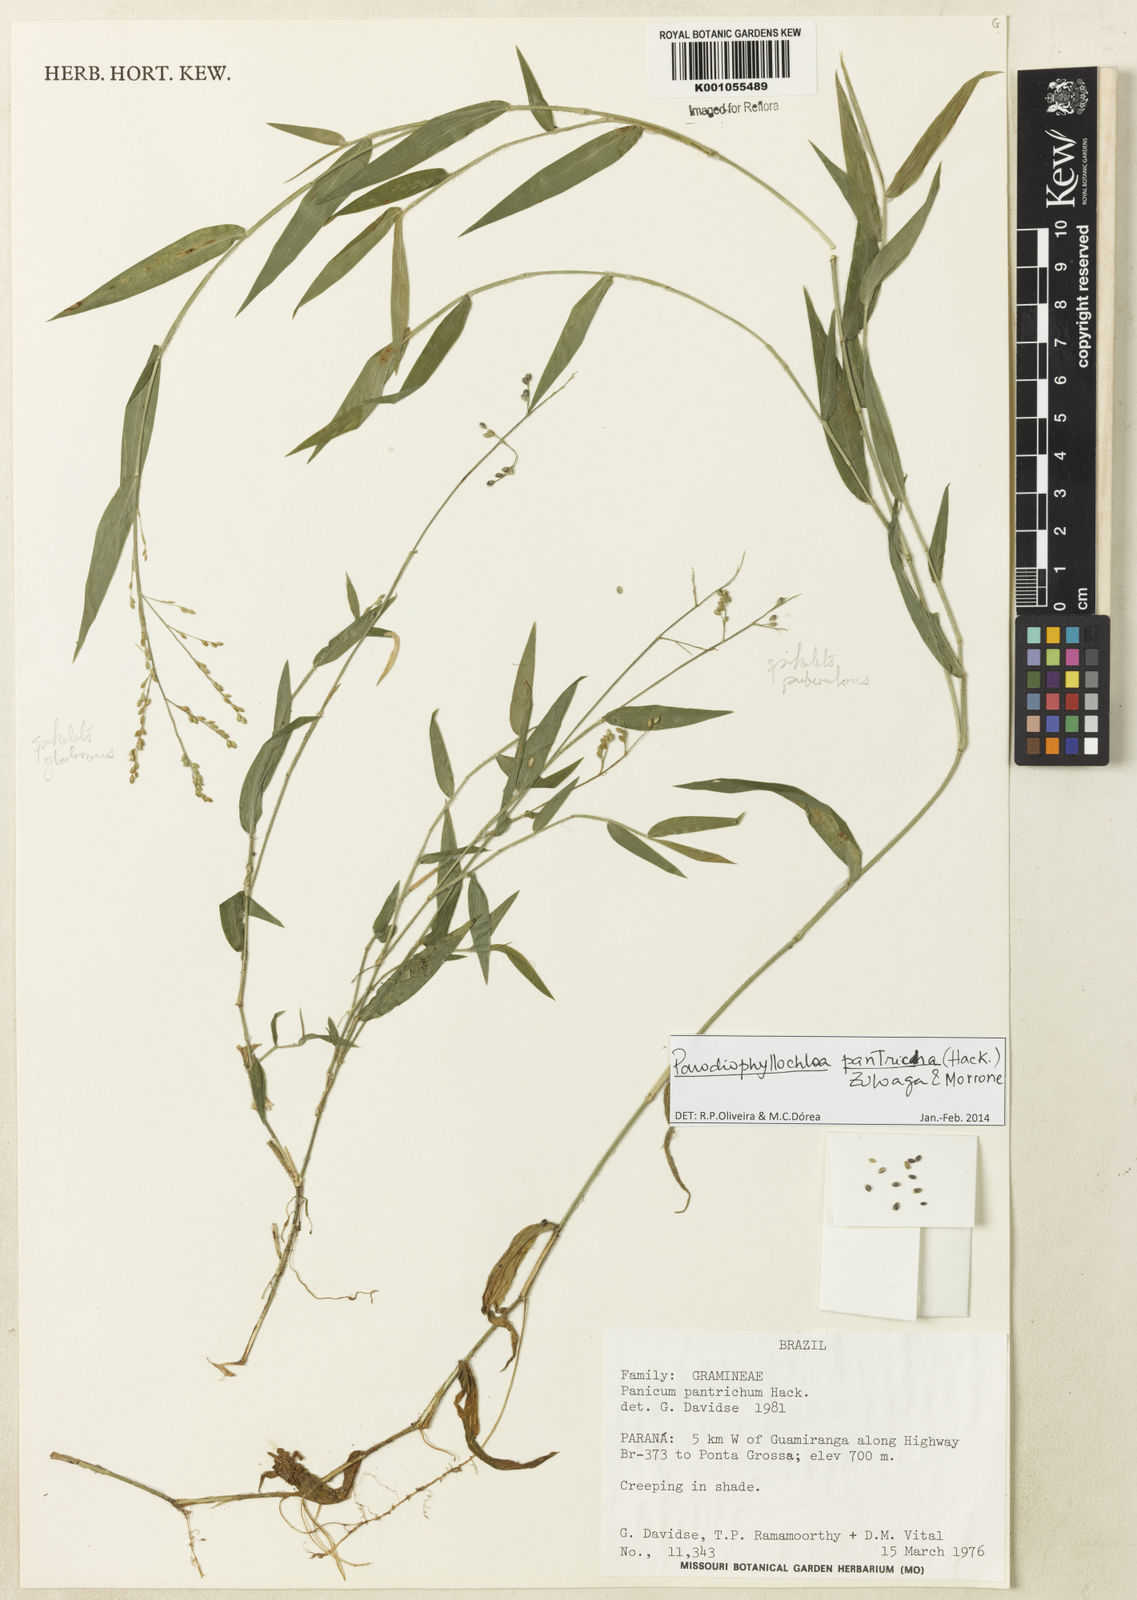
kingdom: Plantae
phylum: Tracheophyta
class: Liliopsida
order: Poales
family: Poaceae
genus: Parodiophyllochloa
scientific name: Parodiophyllochloa pantricha
